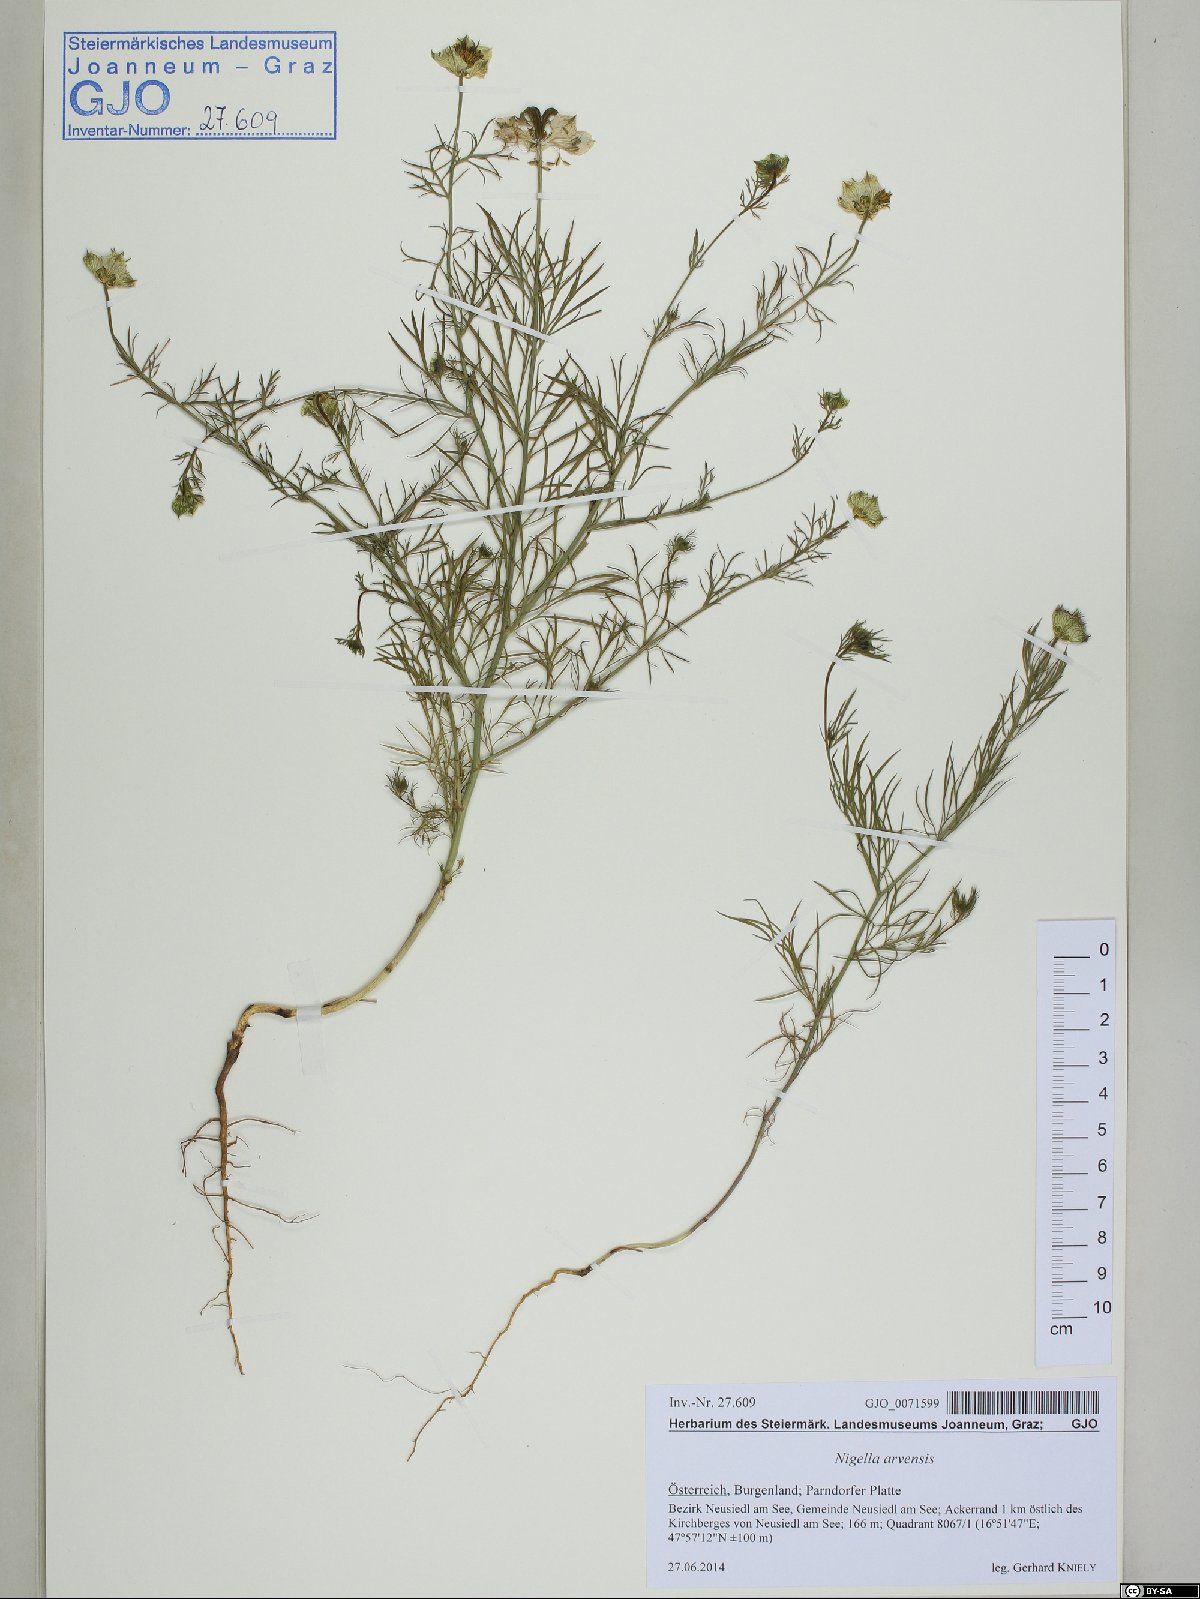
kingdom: Plantae
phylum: Tracheophyta
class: Magnoliopsida
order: Ranunculales
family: Ranunculaceae
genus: Nigella
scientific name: Nigella arvensis
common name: Wild fennel-flower
